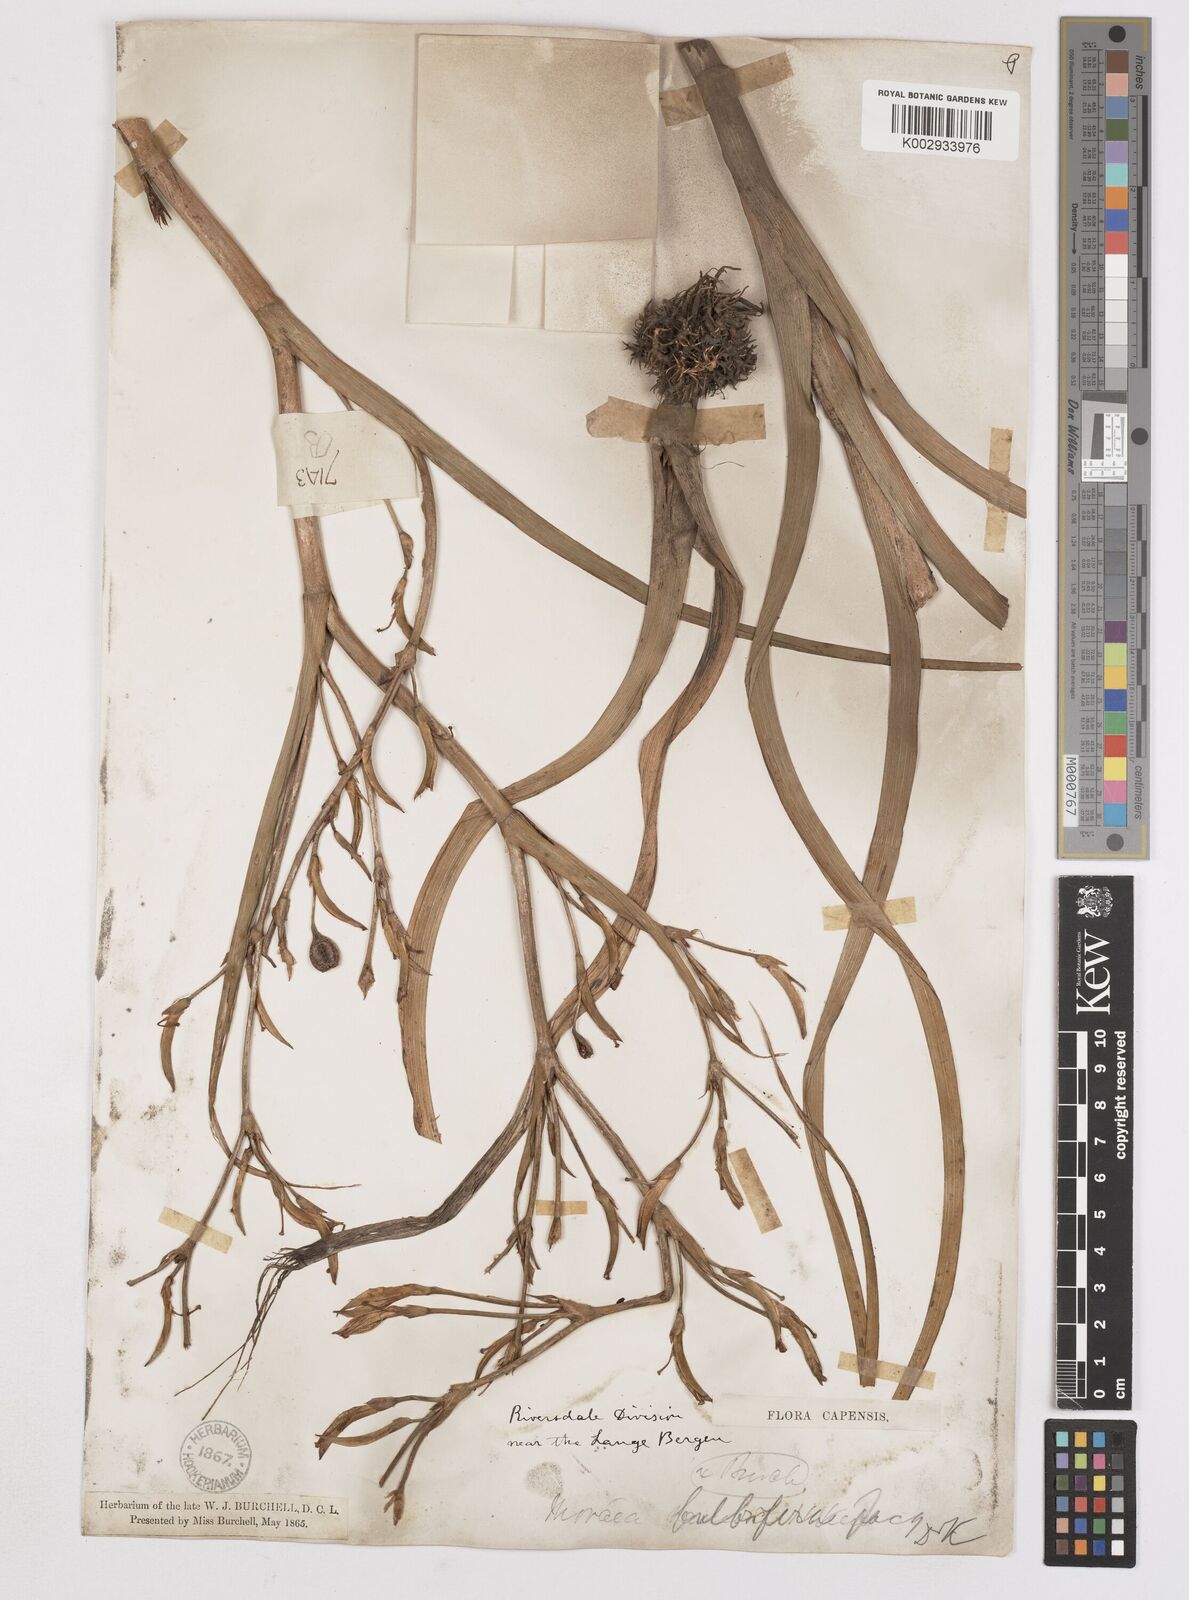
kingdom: Plantae
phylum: Tracheophyta
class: Liliopsida
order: Asparagales
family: Iridaceae
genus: Moraea
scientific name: Moraea ramosissima
